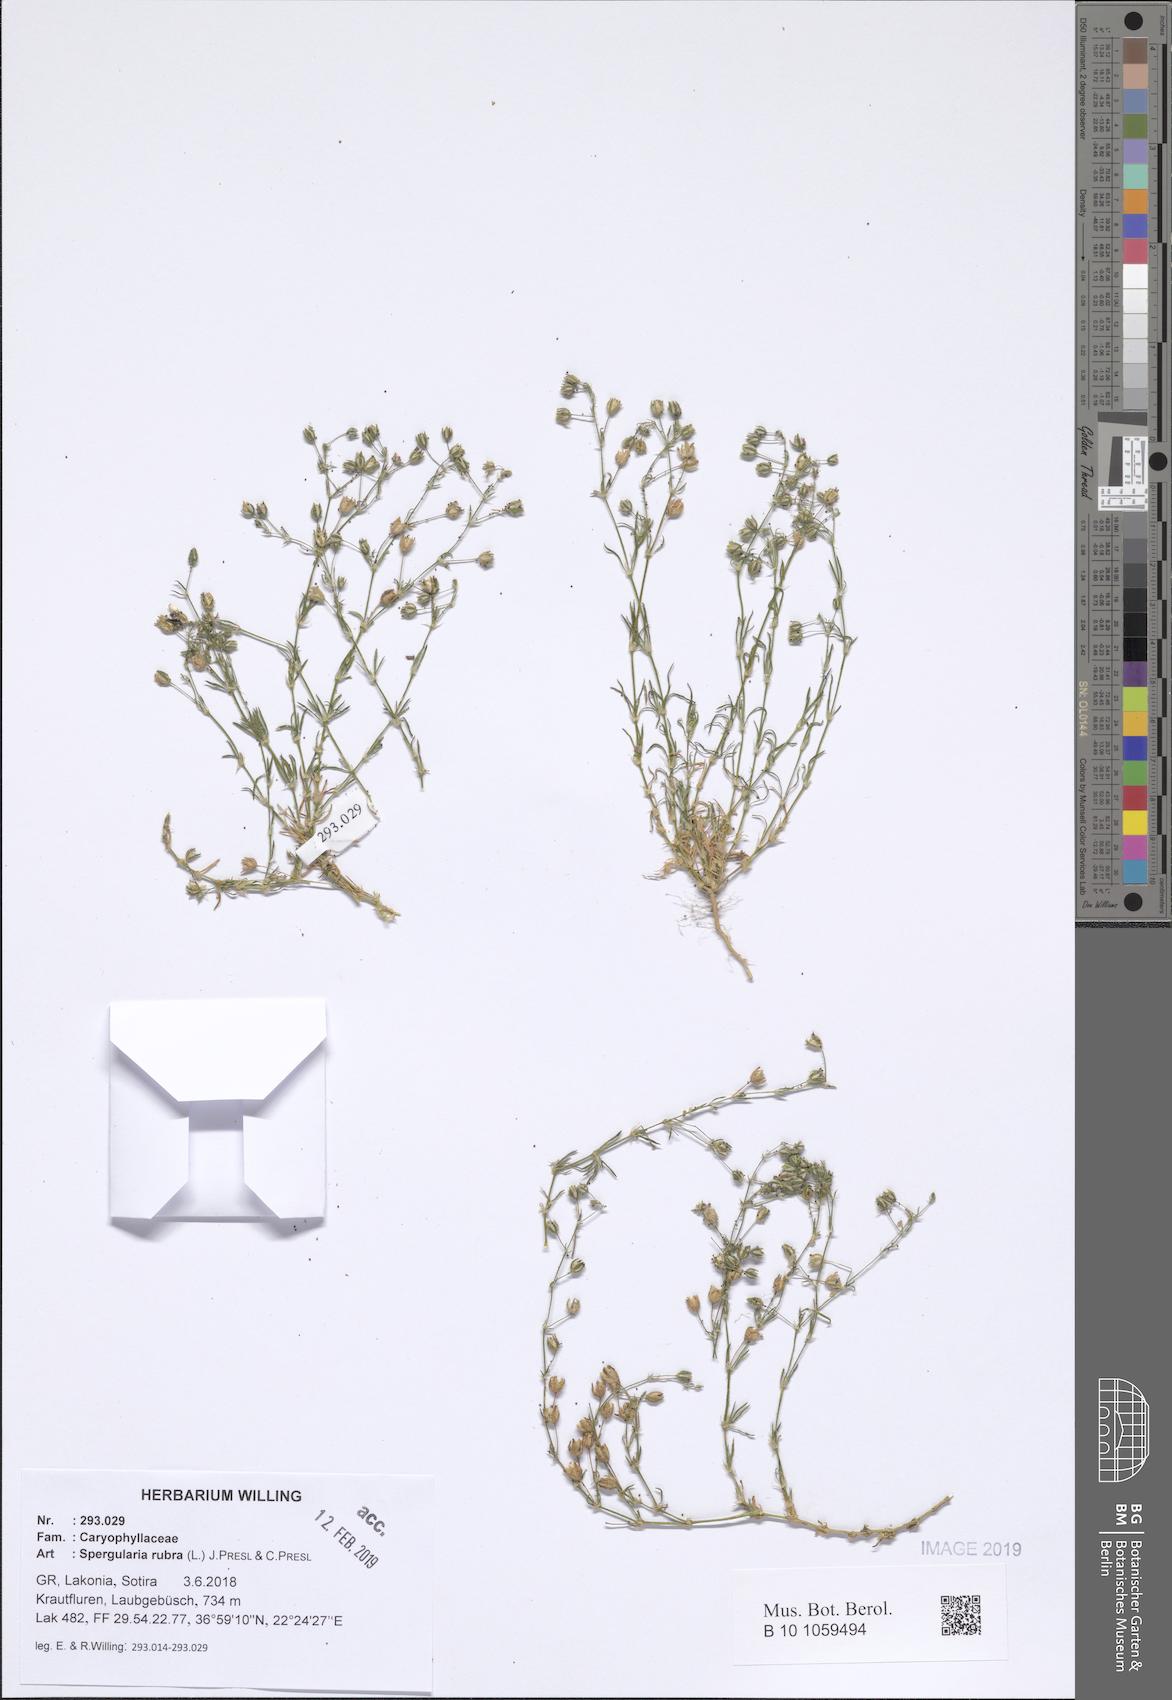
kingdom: Plantae
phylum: Tracheophyta
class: Magnoliopsida
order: Caryophyllales
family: Caryophyllaceae
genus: Spergularia
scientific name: Spergularia rubra
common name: Red sand-spurrey
